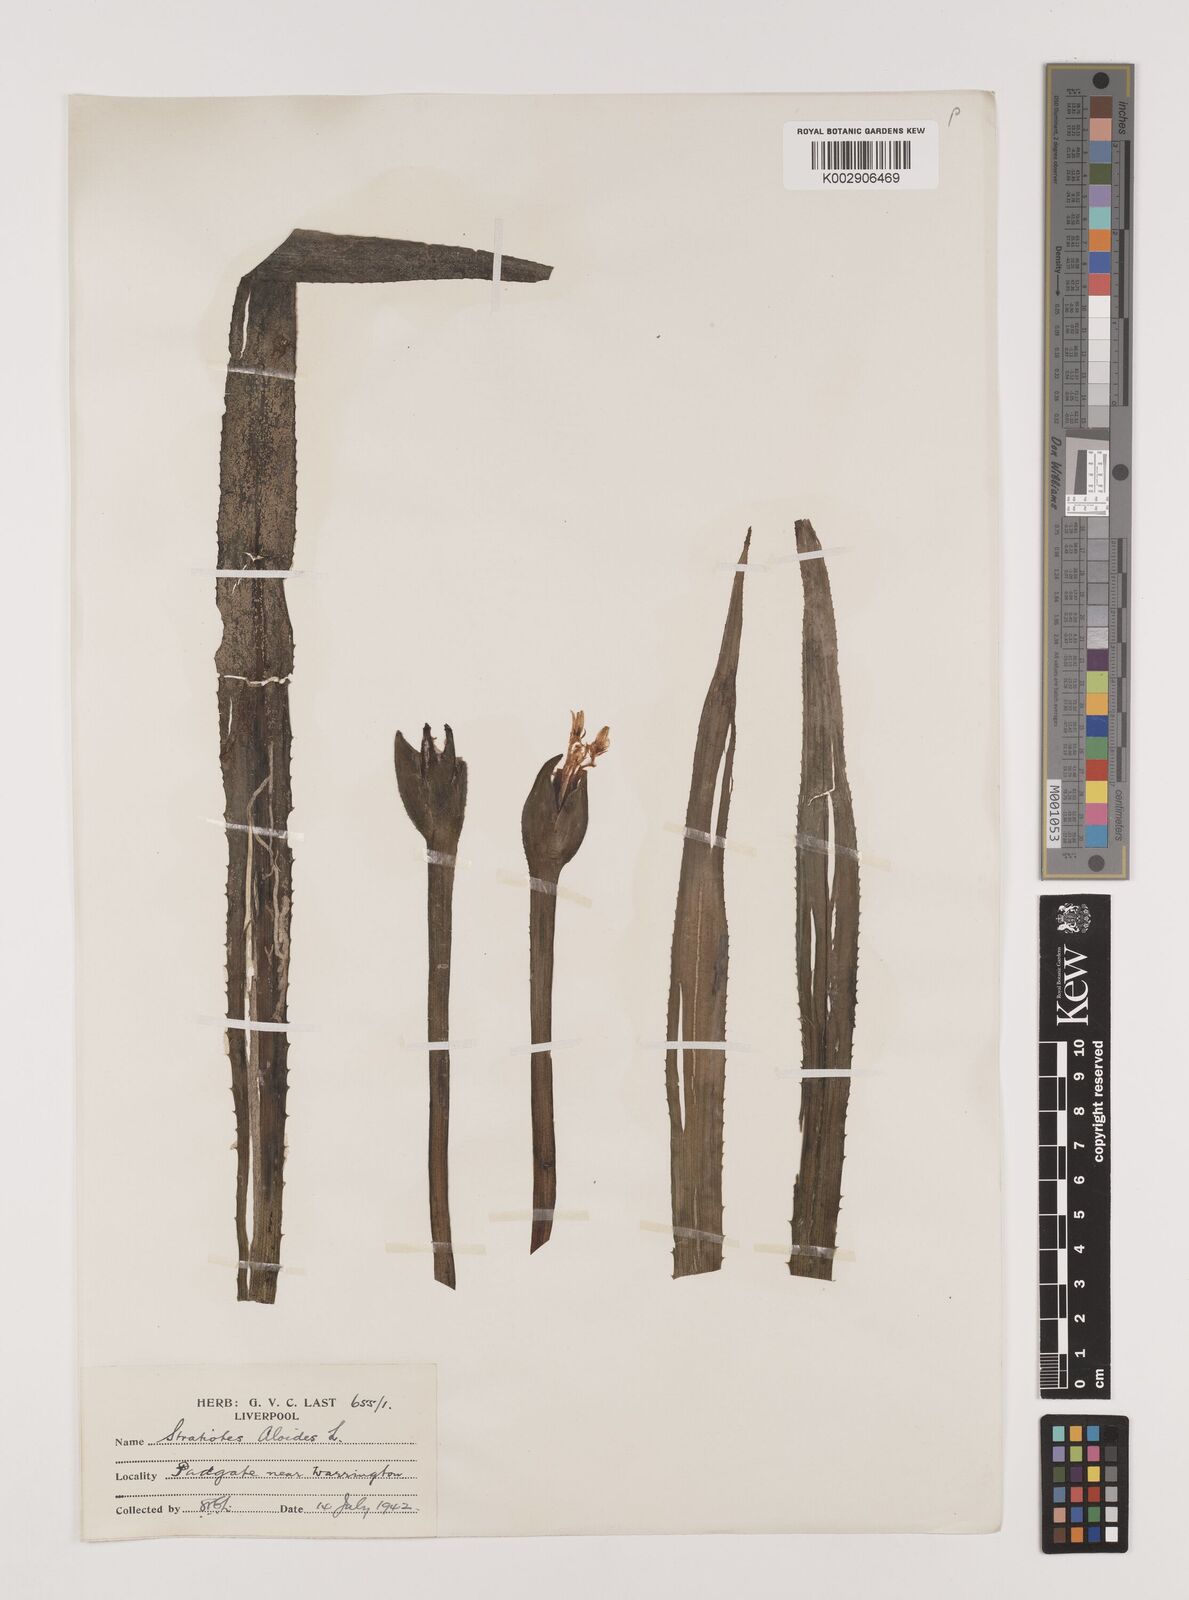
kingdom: Plantae
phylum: Tracheophyta
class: Liliopsida
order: Alismatales
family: Hydrocharitaceae
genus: Stratiotes
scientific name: Stratiotes aloides
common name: Water-soldier
